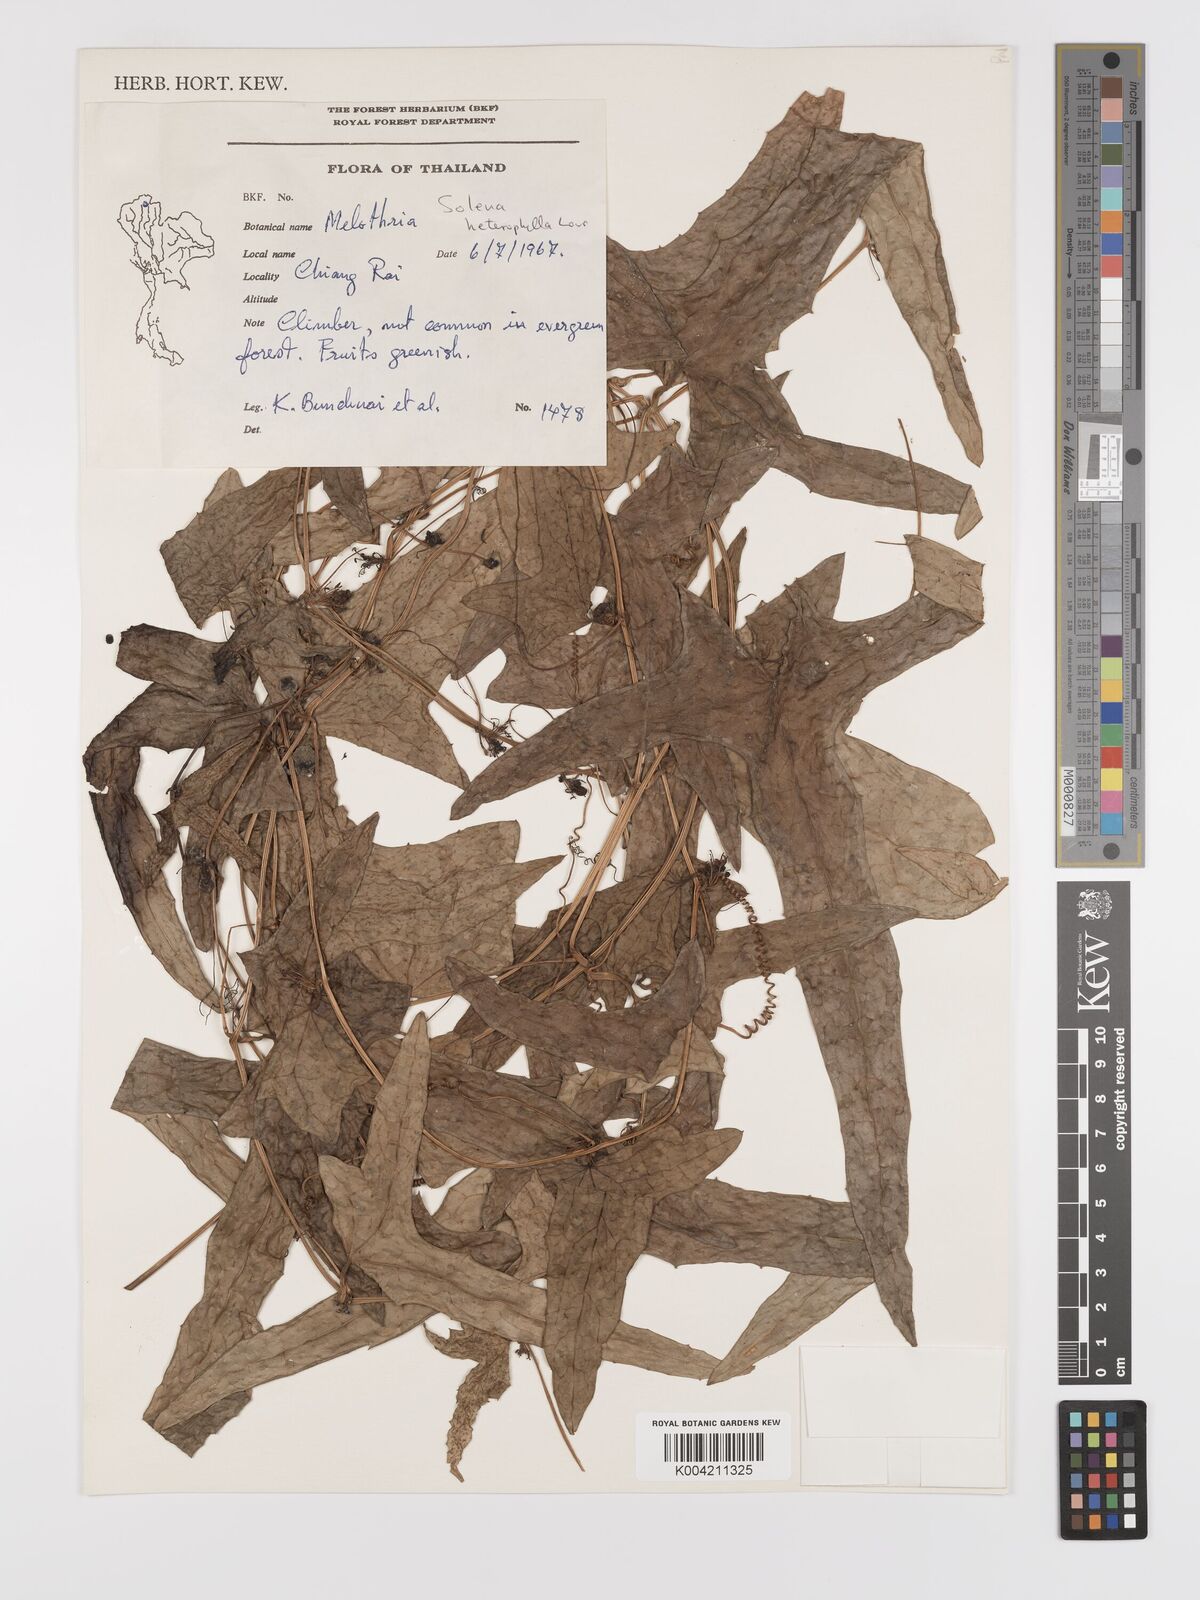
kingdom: Plantae
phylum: Tracheophyta
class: Magnoliopsida
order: Cucurbitales
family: Cucurbitaceae
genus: Solena
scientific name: Solena amplexicaulis
